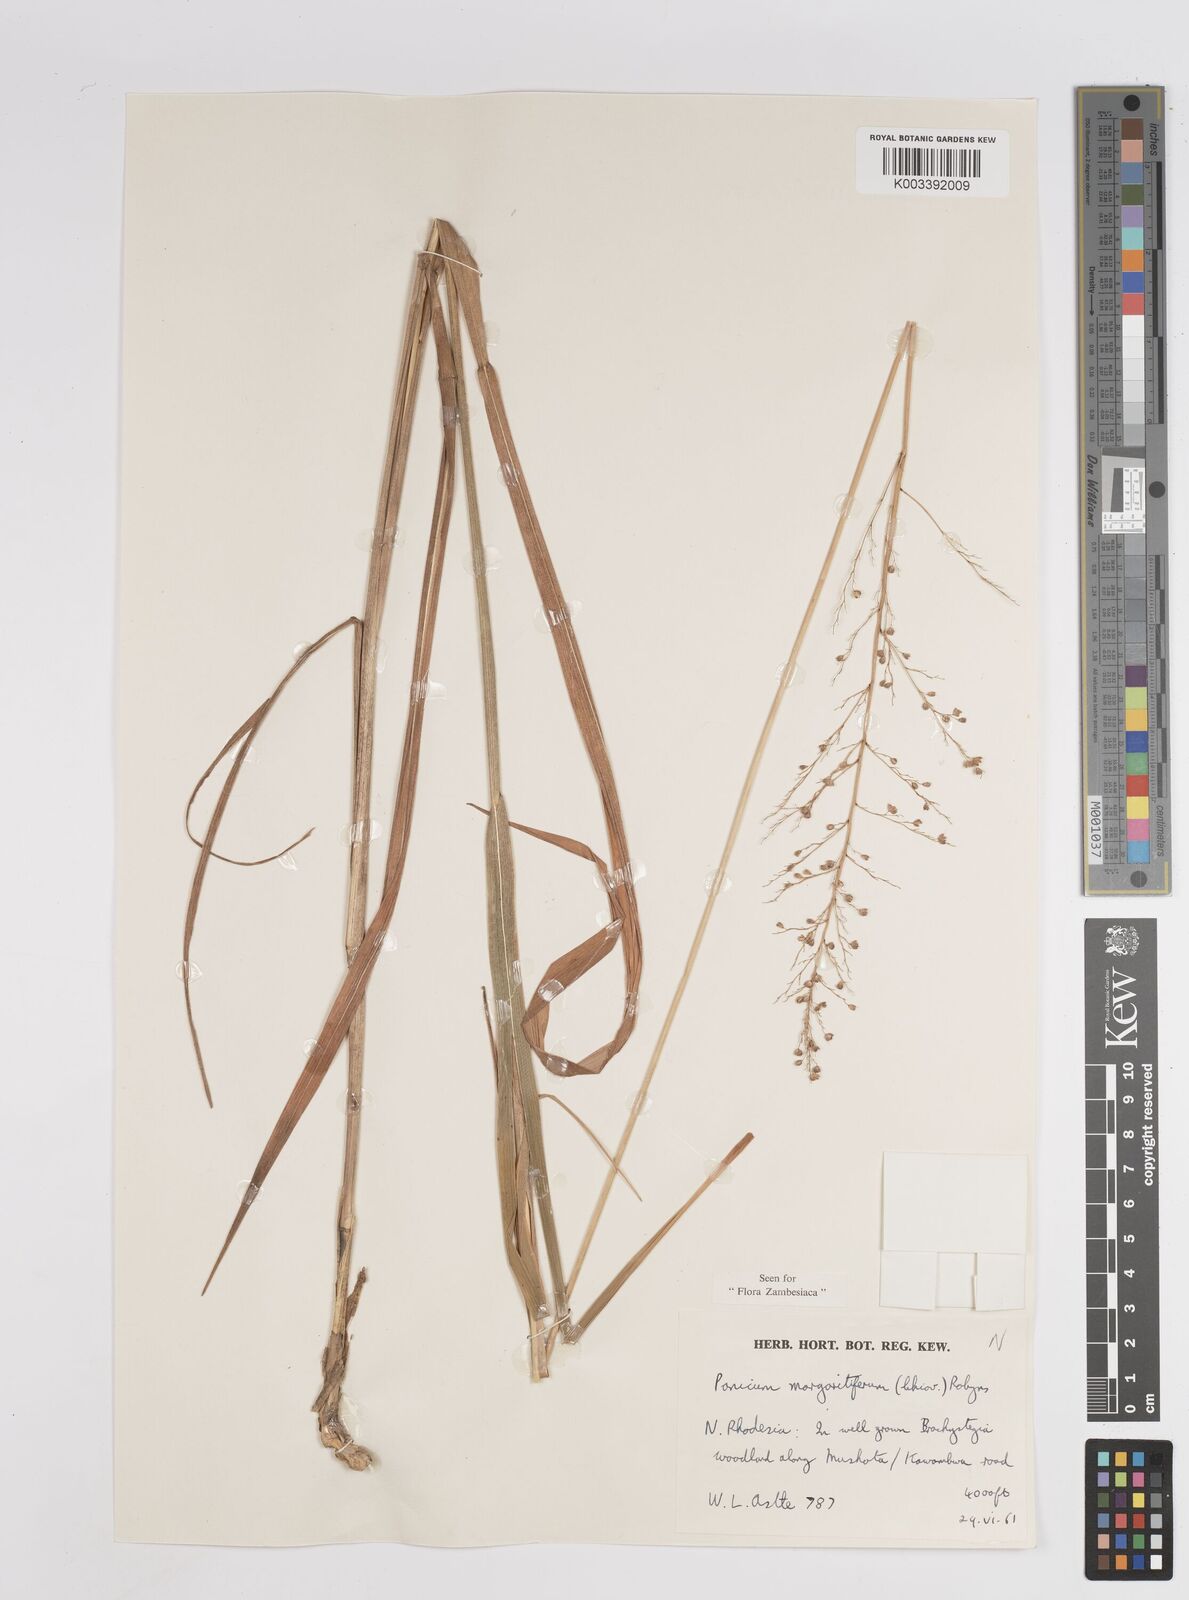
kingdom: Plantae
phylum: Tracheophyta
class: Liliopsida
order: Poales
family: Poaceae
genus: Sacciolepis
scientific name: Sacciolepis myuros
